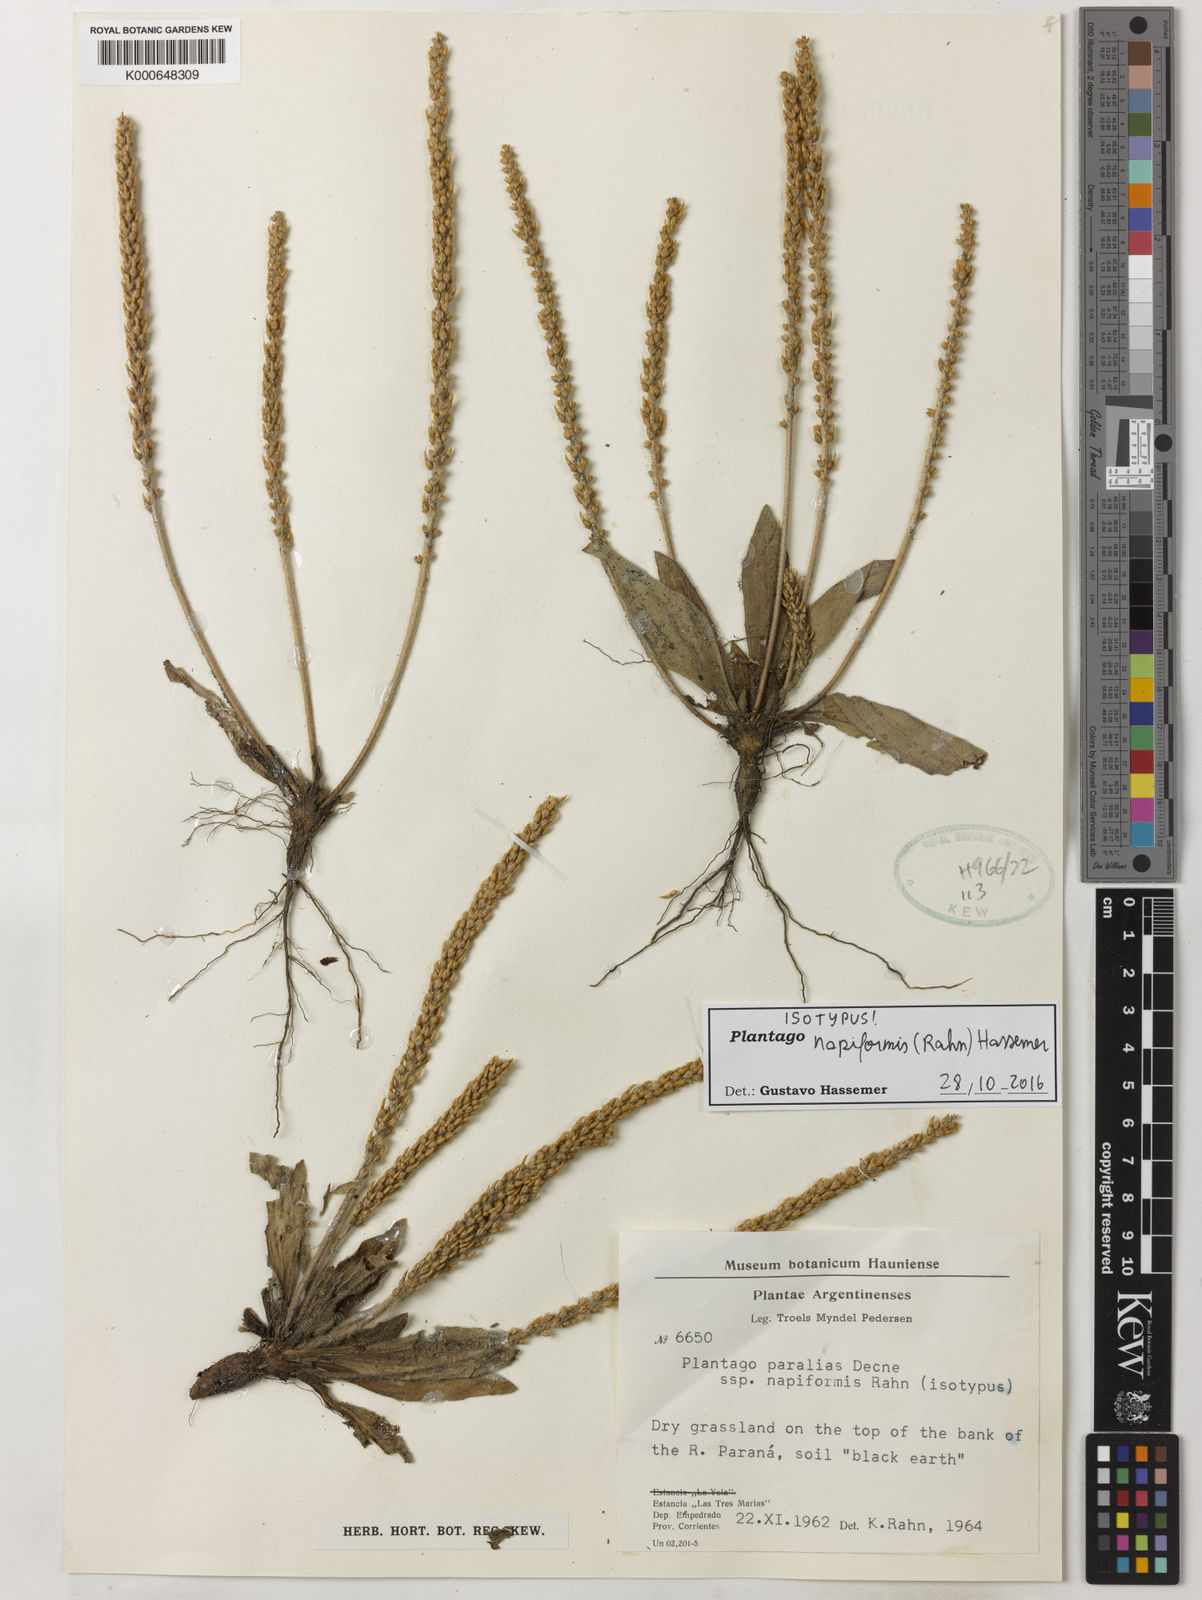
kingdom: Plantae
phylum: Tracheophyta
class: Magnoliopsida
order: Lamiales
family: Plantaginaceae
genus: Plantago
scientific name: Plantago napiformis
